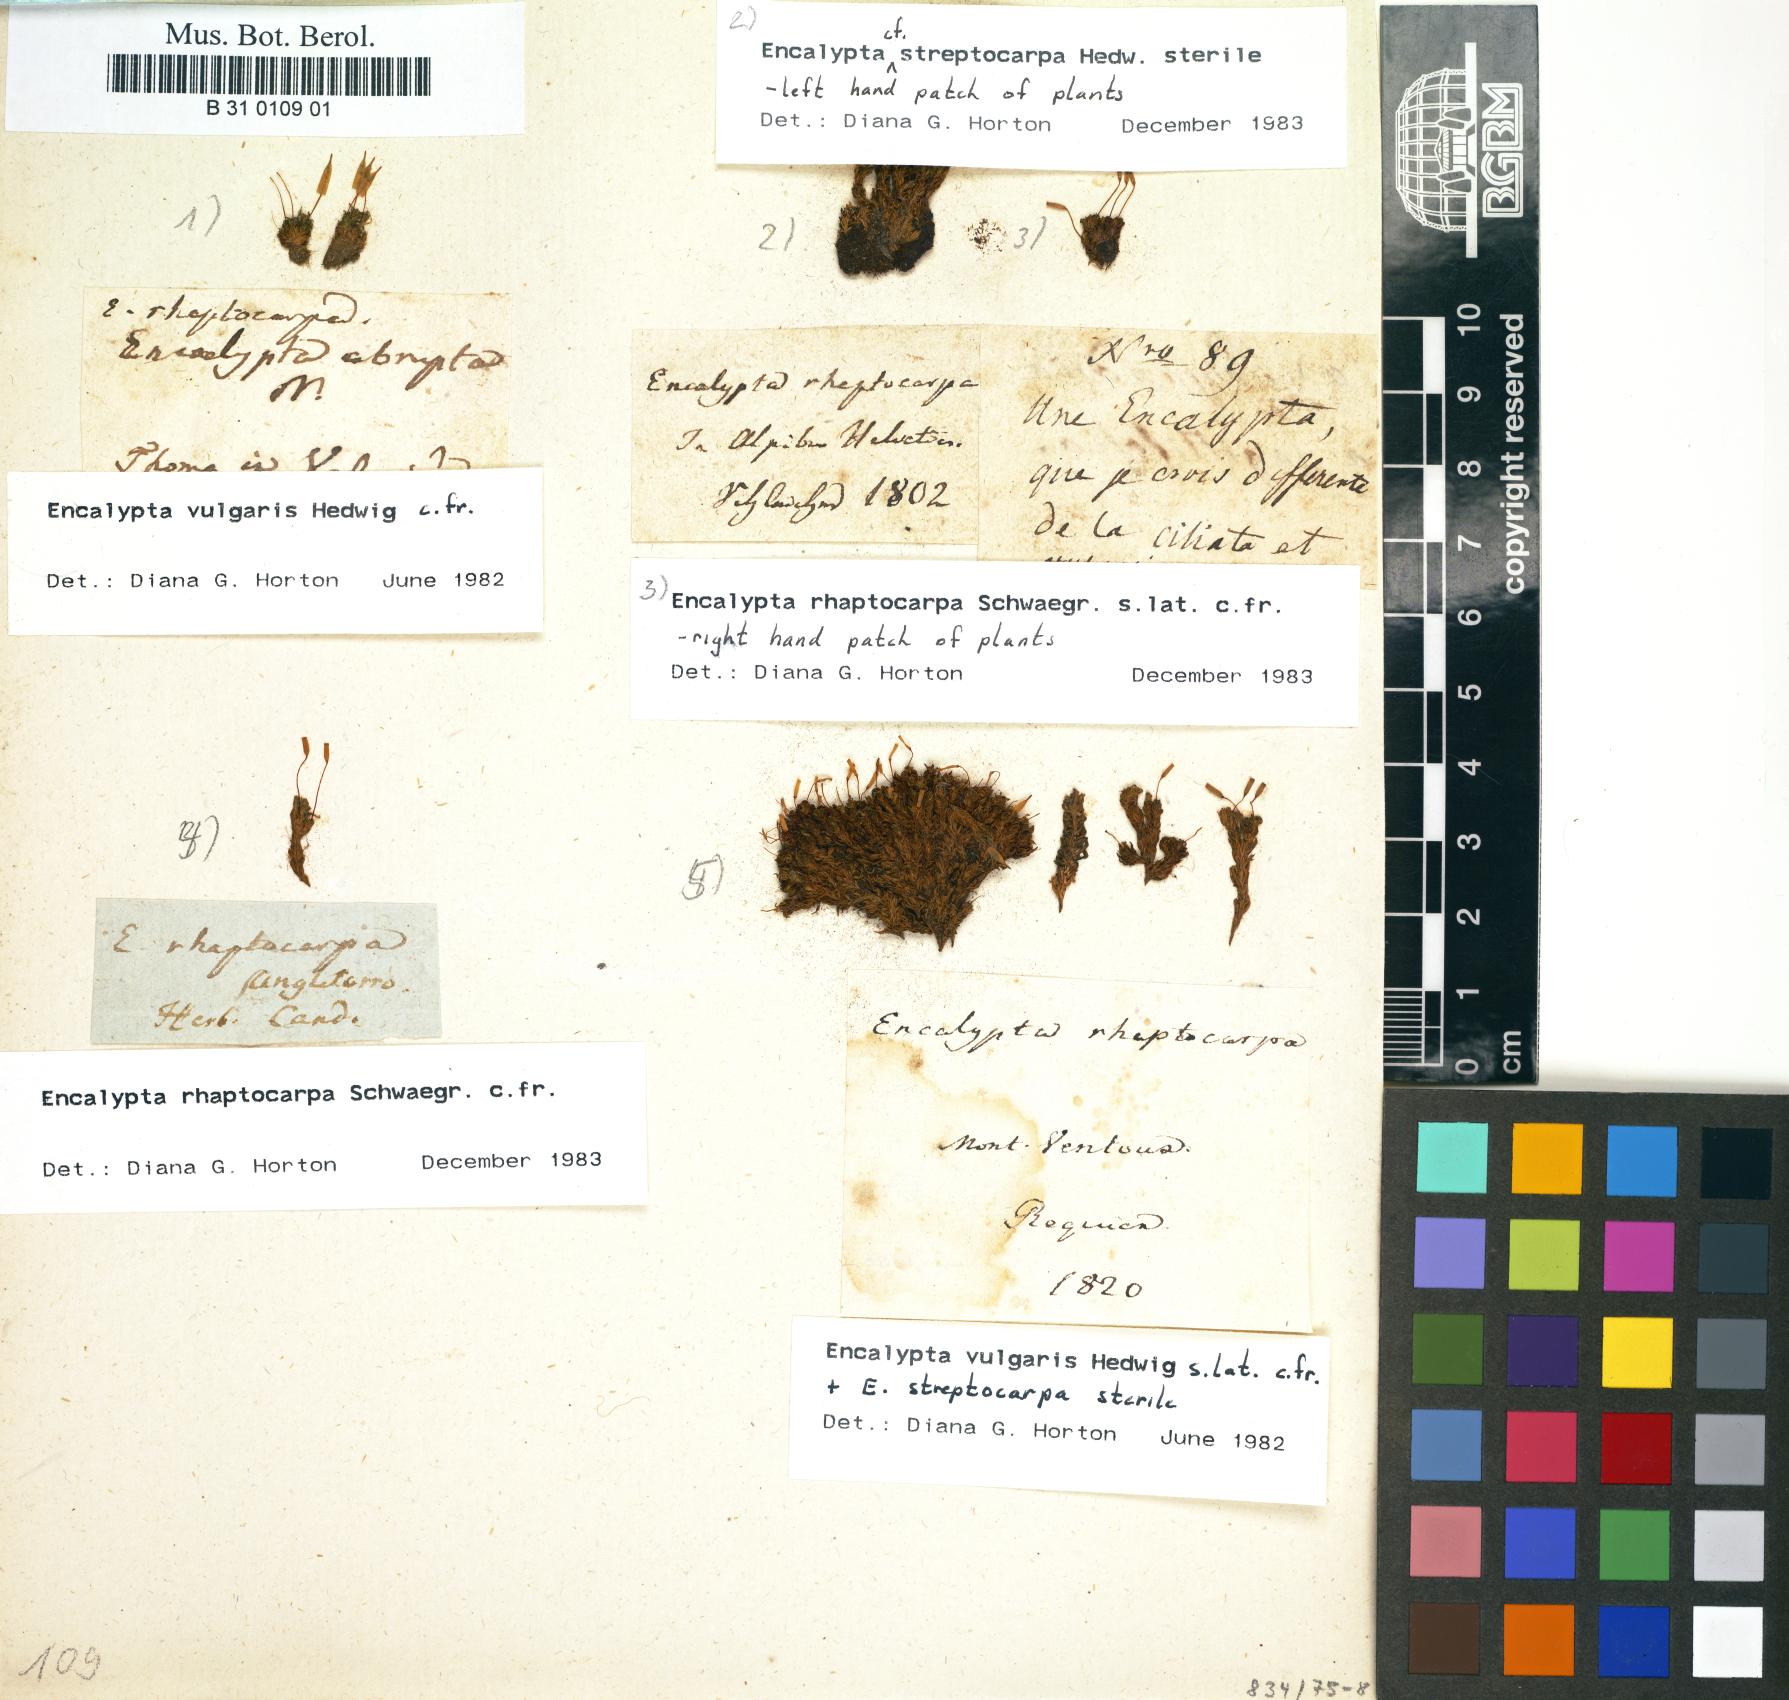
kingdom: Plantae
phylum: Bryophyta
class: Bryopsida
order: Encalyptales
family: Encalyptaceae
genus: Encalypta
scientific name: Encalypta streptocarpa
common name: Spiral extinguisher-moss
